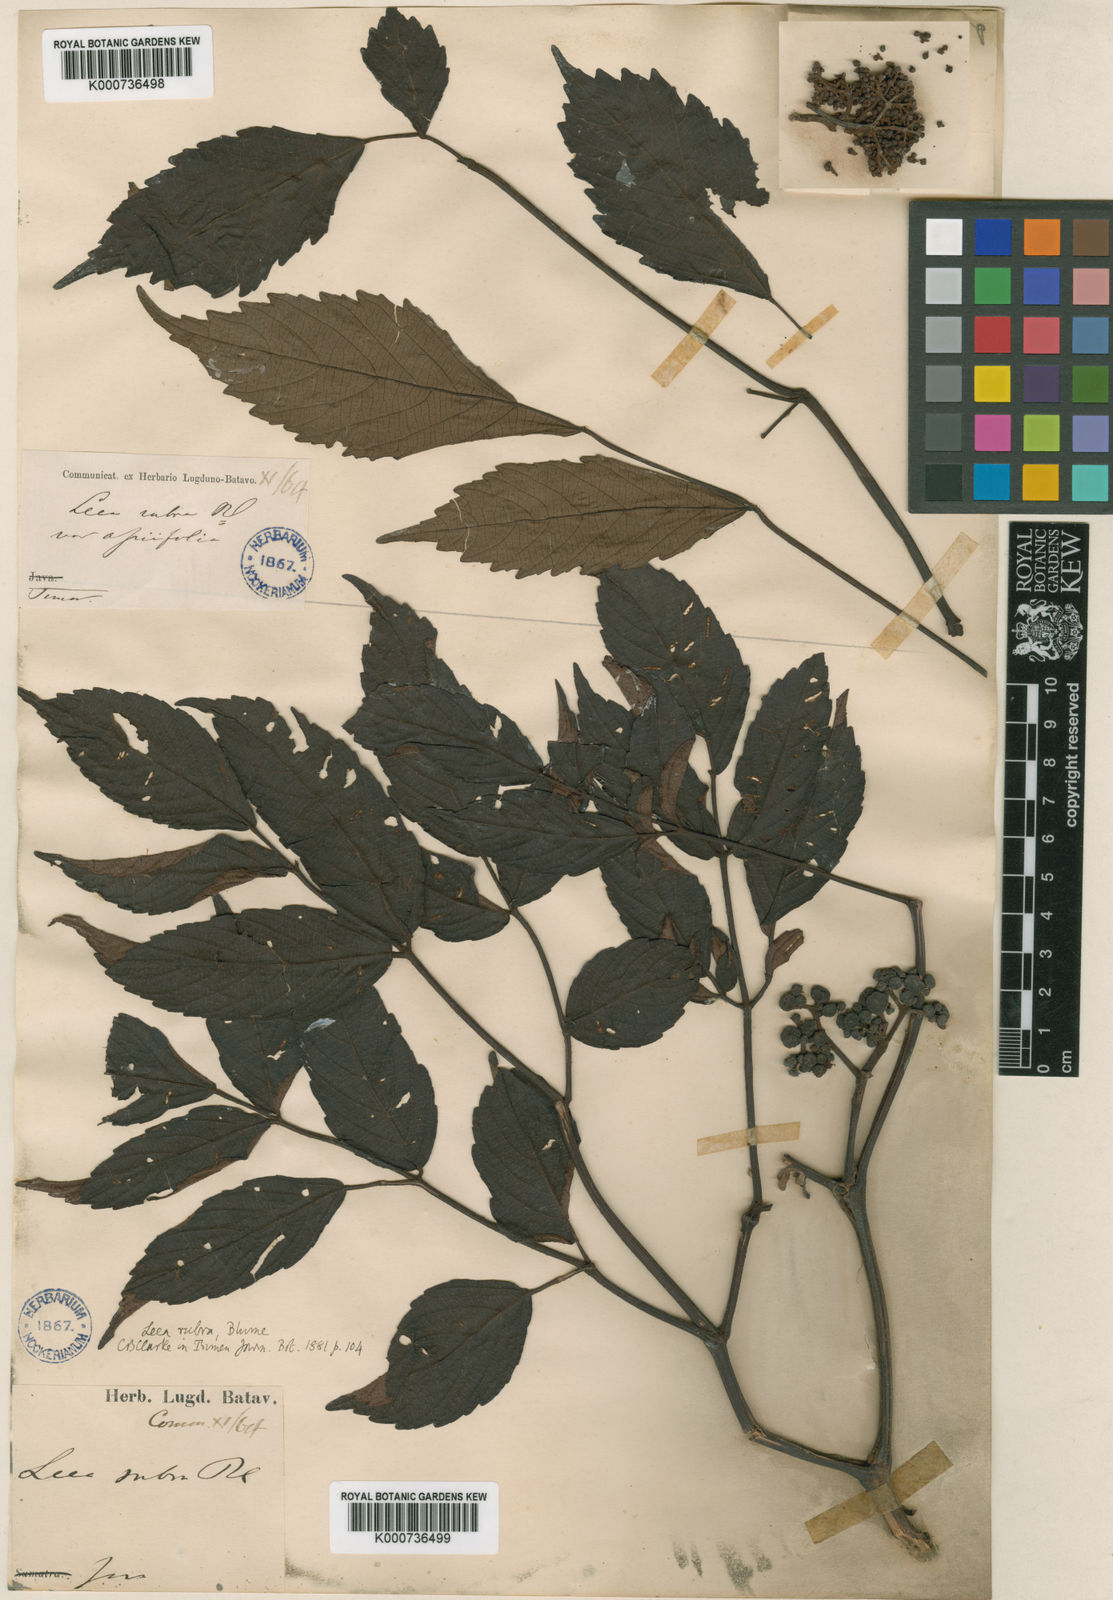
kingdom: Plantae
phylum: Tracheophyta
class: Magnoliopsida
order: Vitales
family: Vitaceae
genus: Leea
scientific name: Leea rubra
